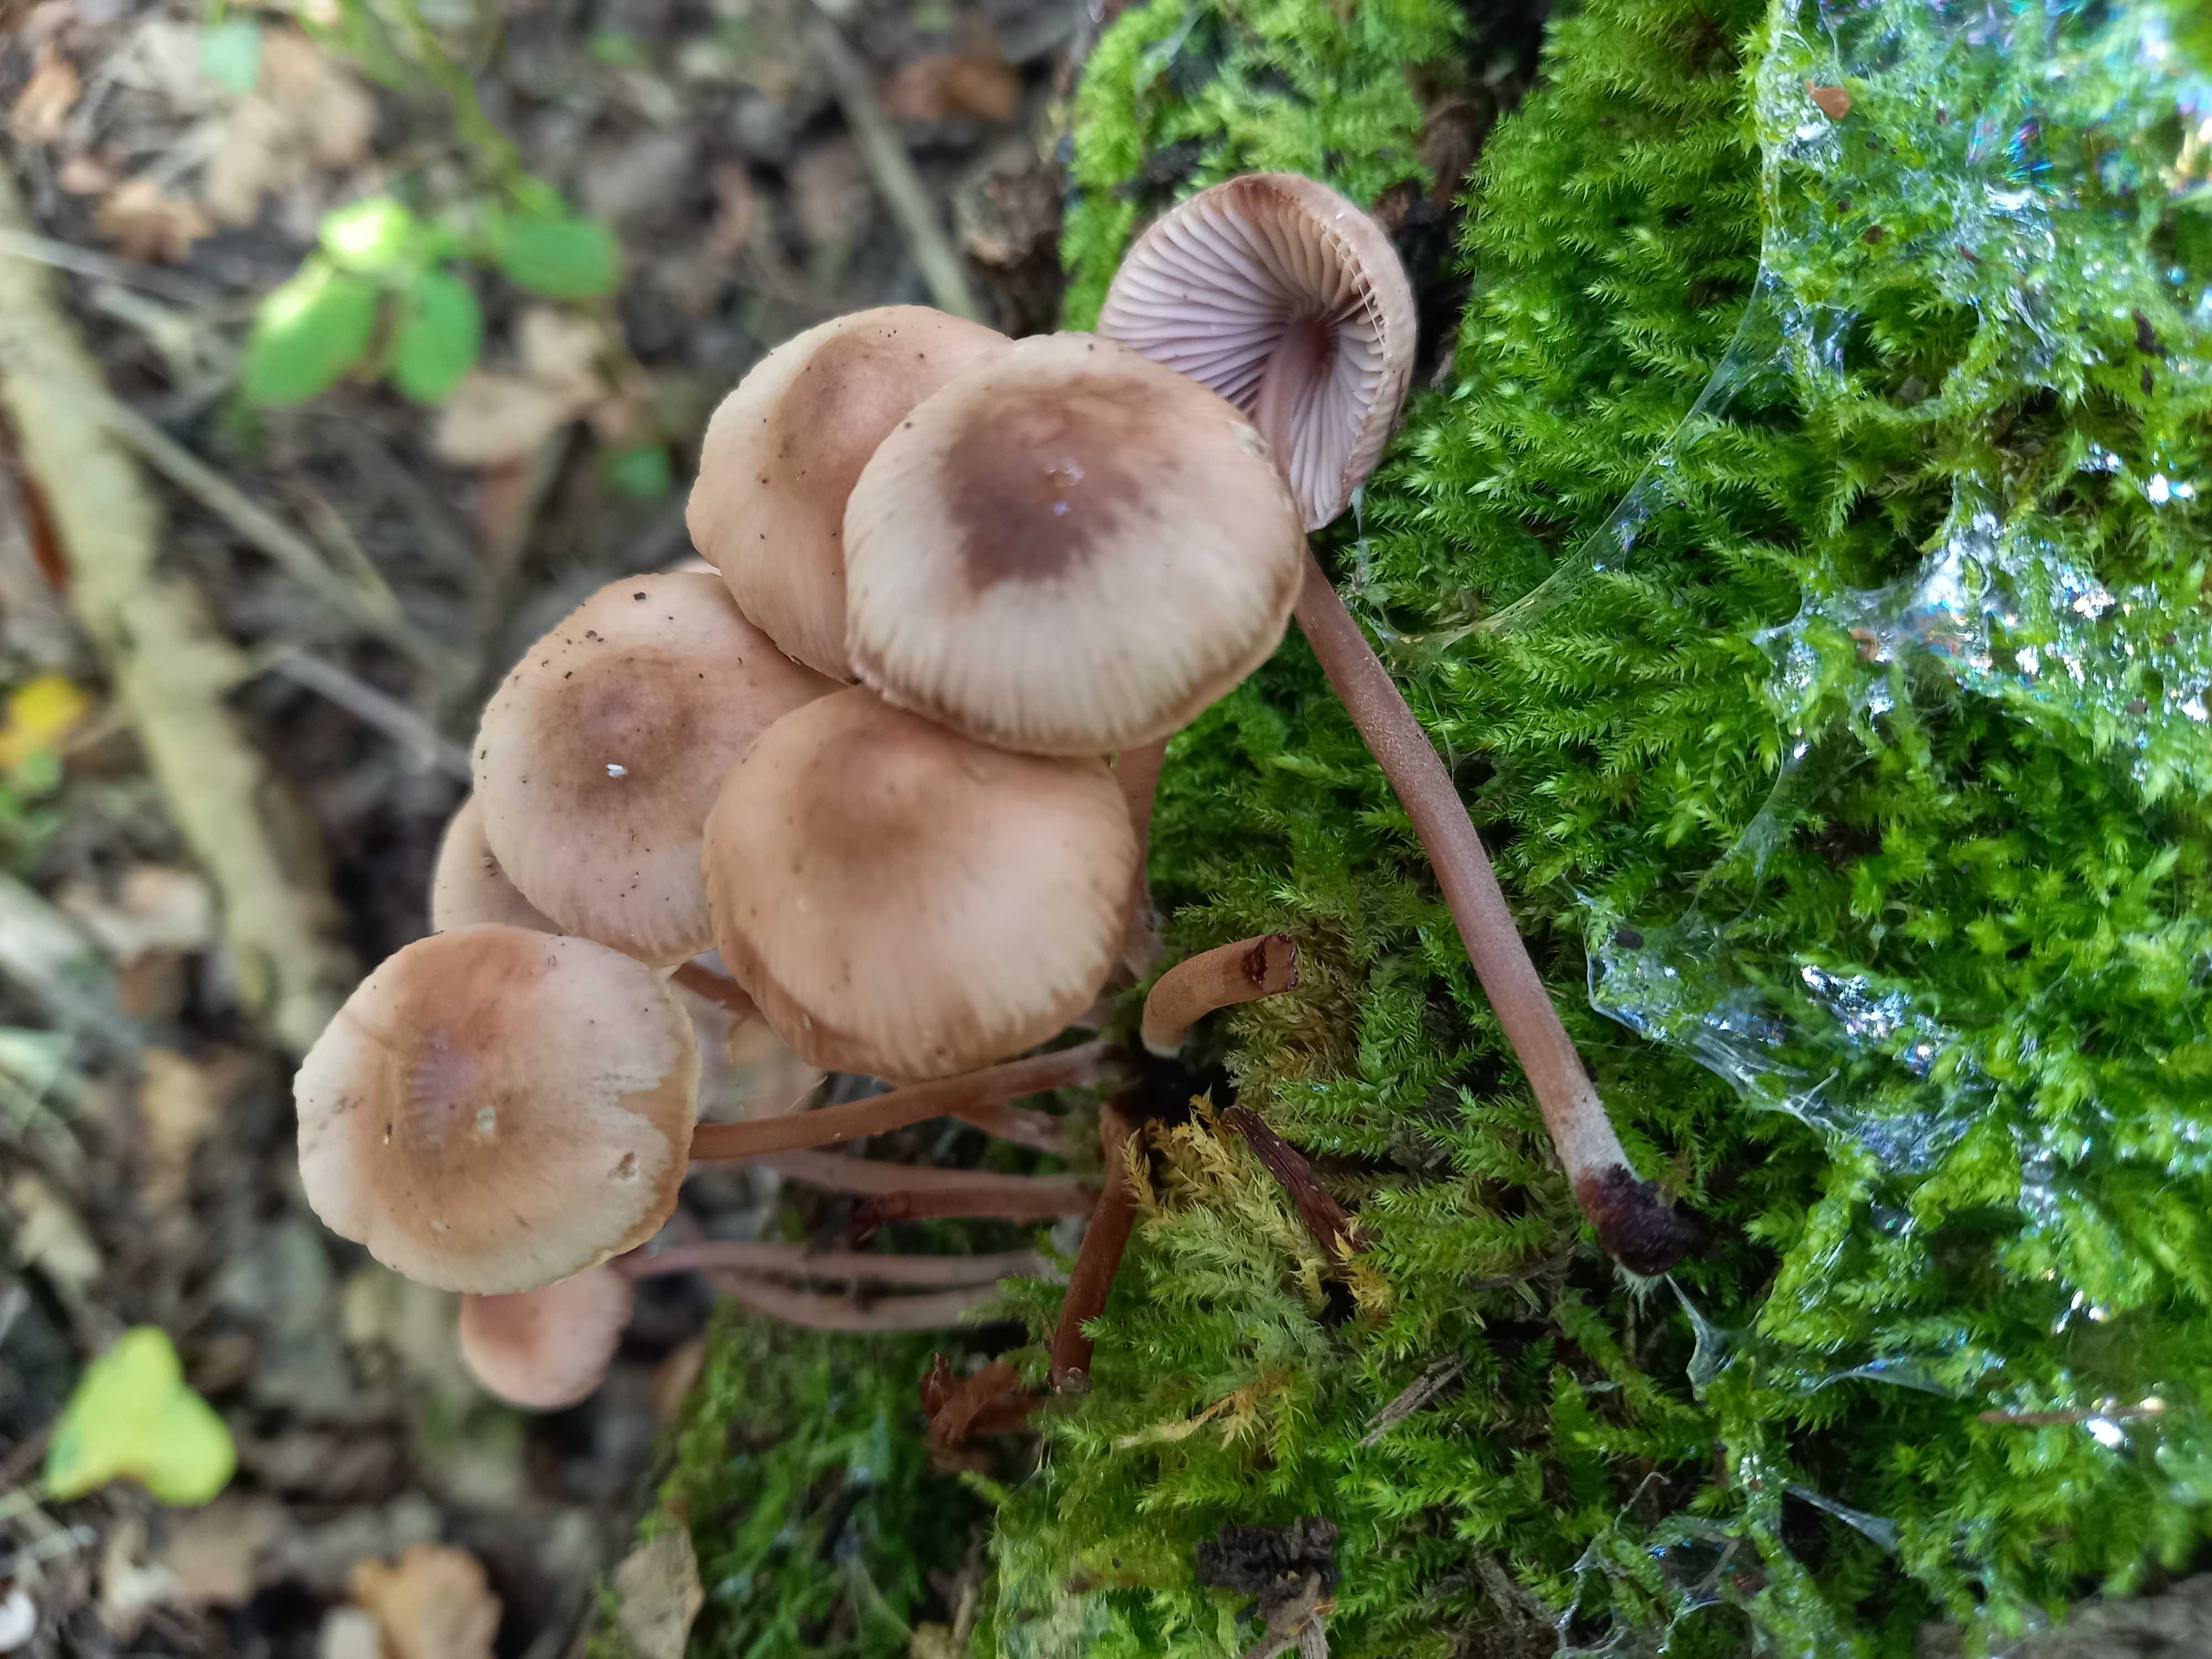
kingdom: Fungi
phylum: Basidiomycota
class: Agaricomycetes
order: Agaricales
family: Mycenaceae
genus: Mycena
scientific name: Mycena haematopus
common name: blødende huesvamp
